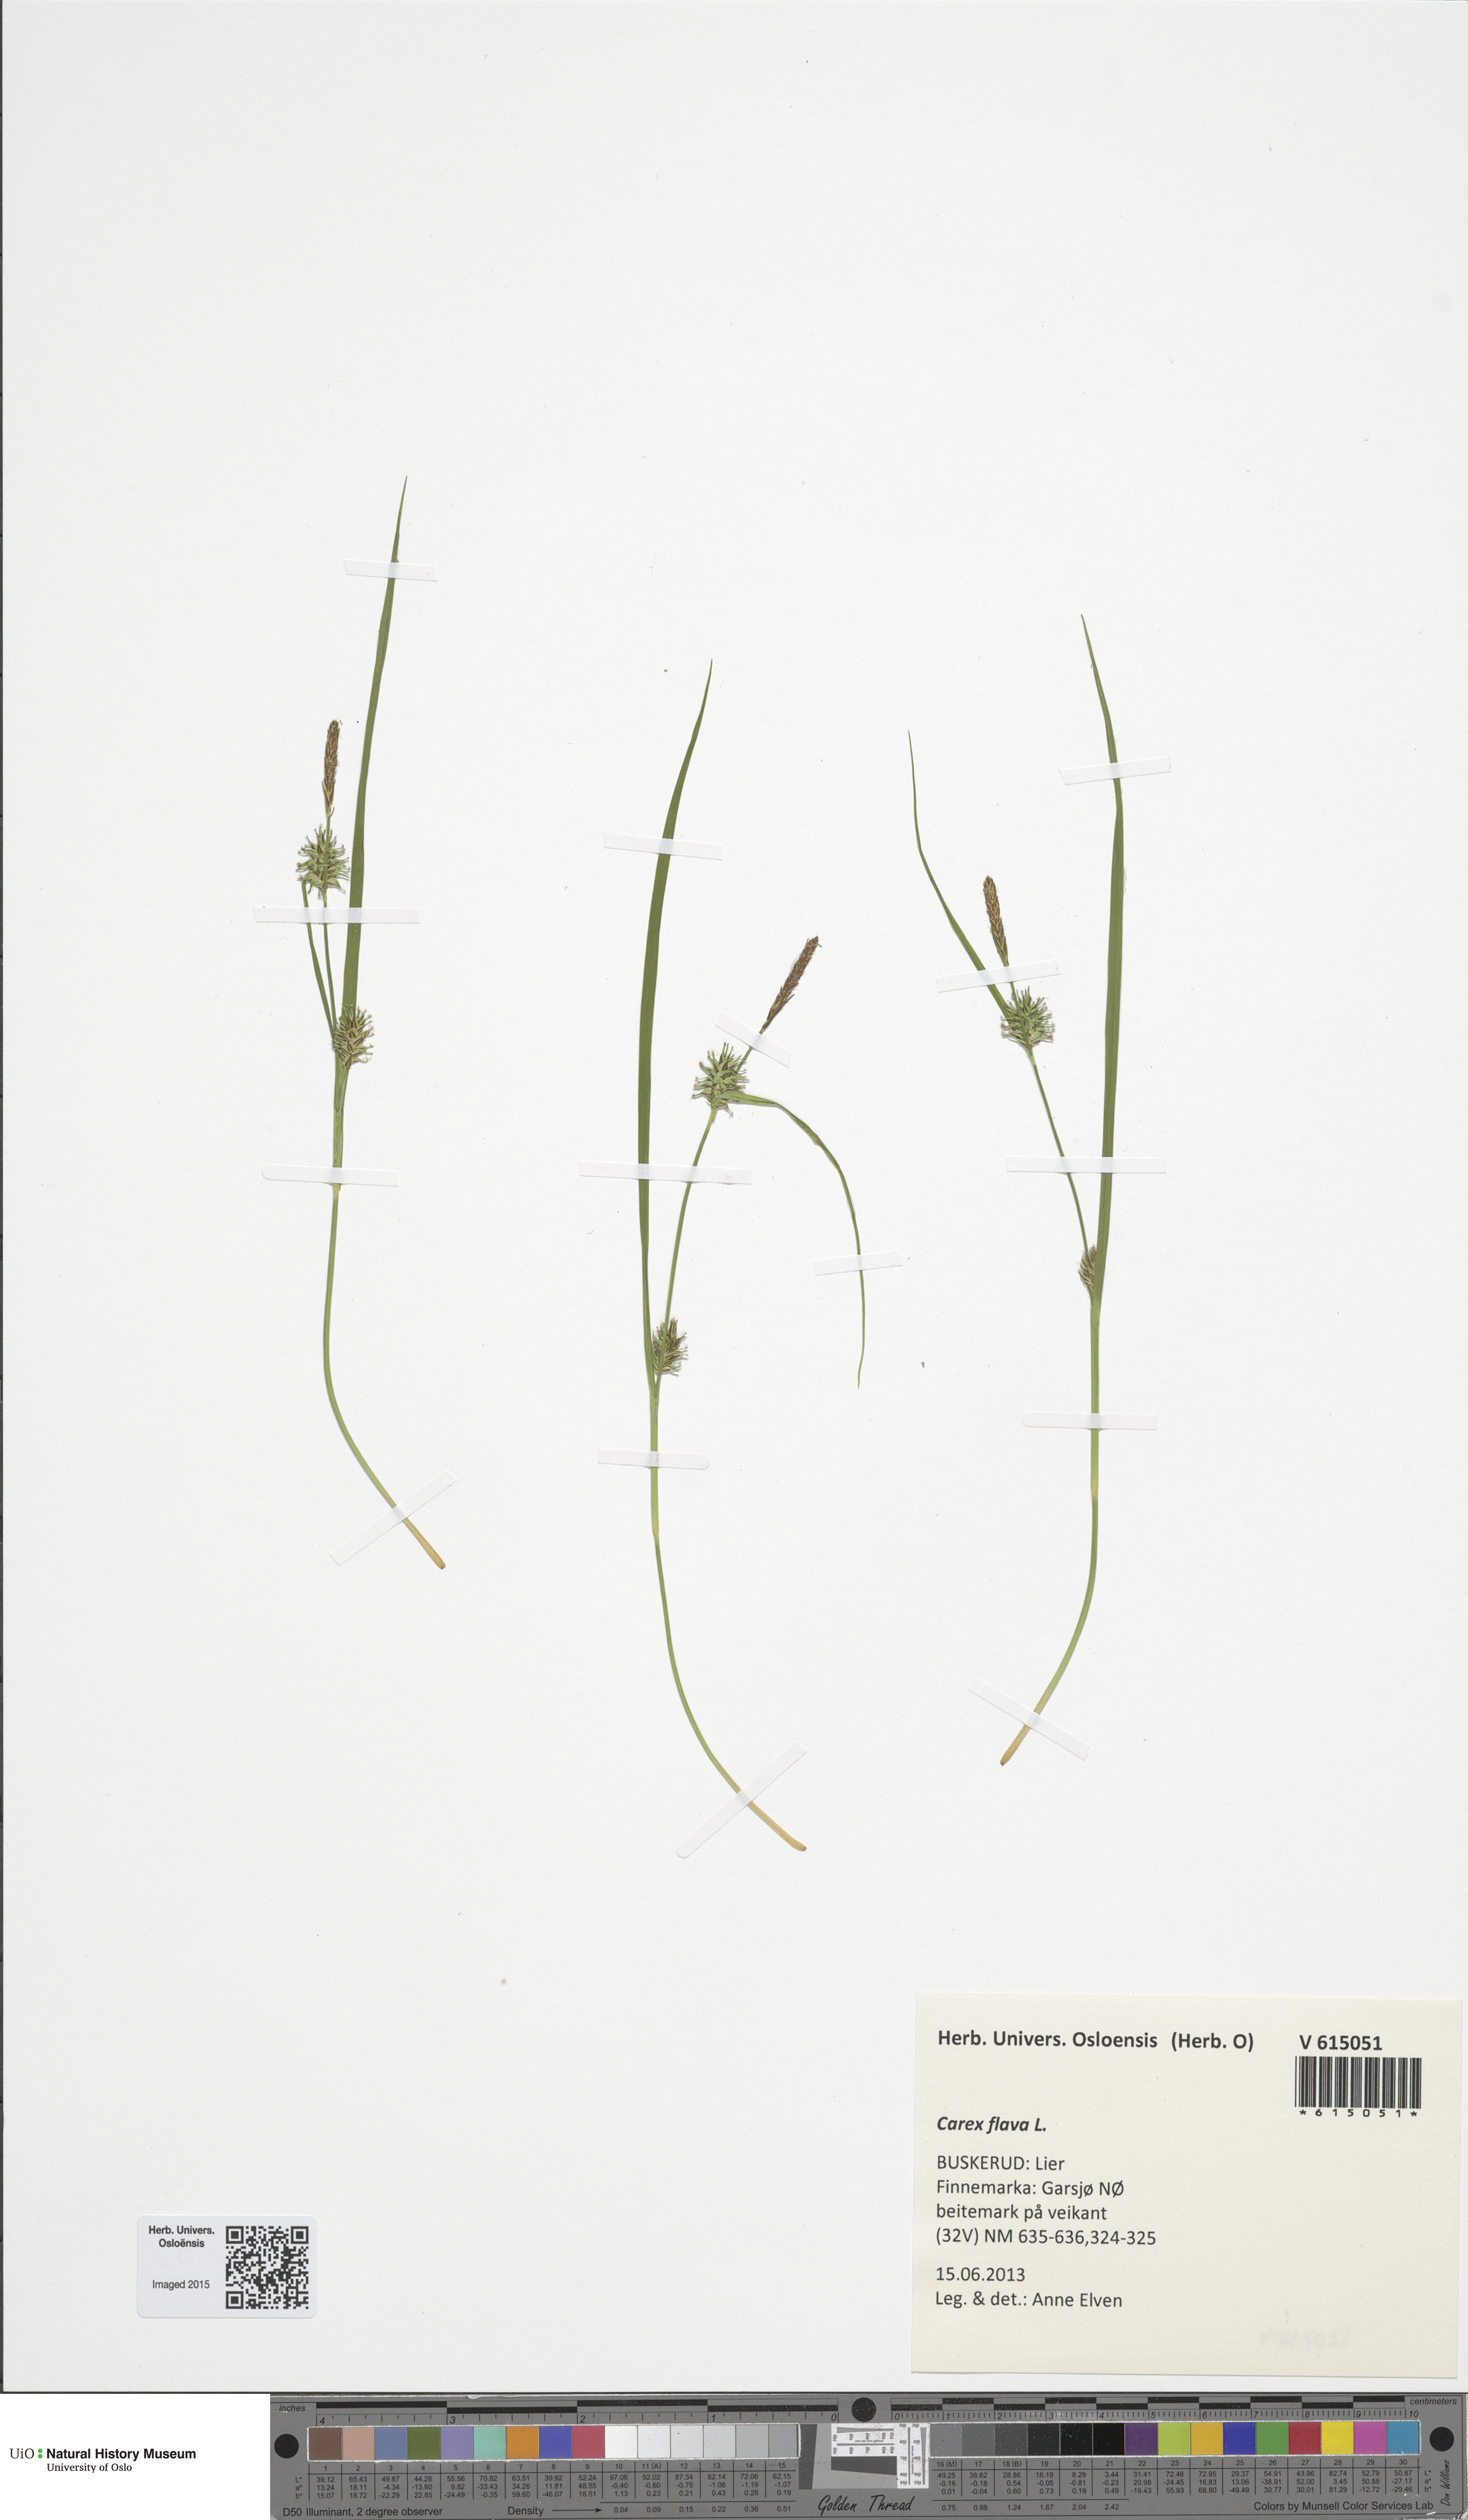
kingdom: Plantae
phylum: Tracheophyta
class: Liliopsida
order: Poales
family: Cyperaceae
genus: Carex
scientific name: Carex flava
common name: Large yellow-sedge
